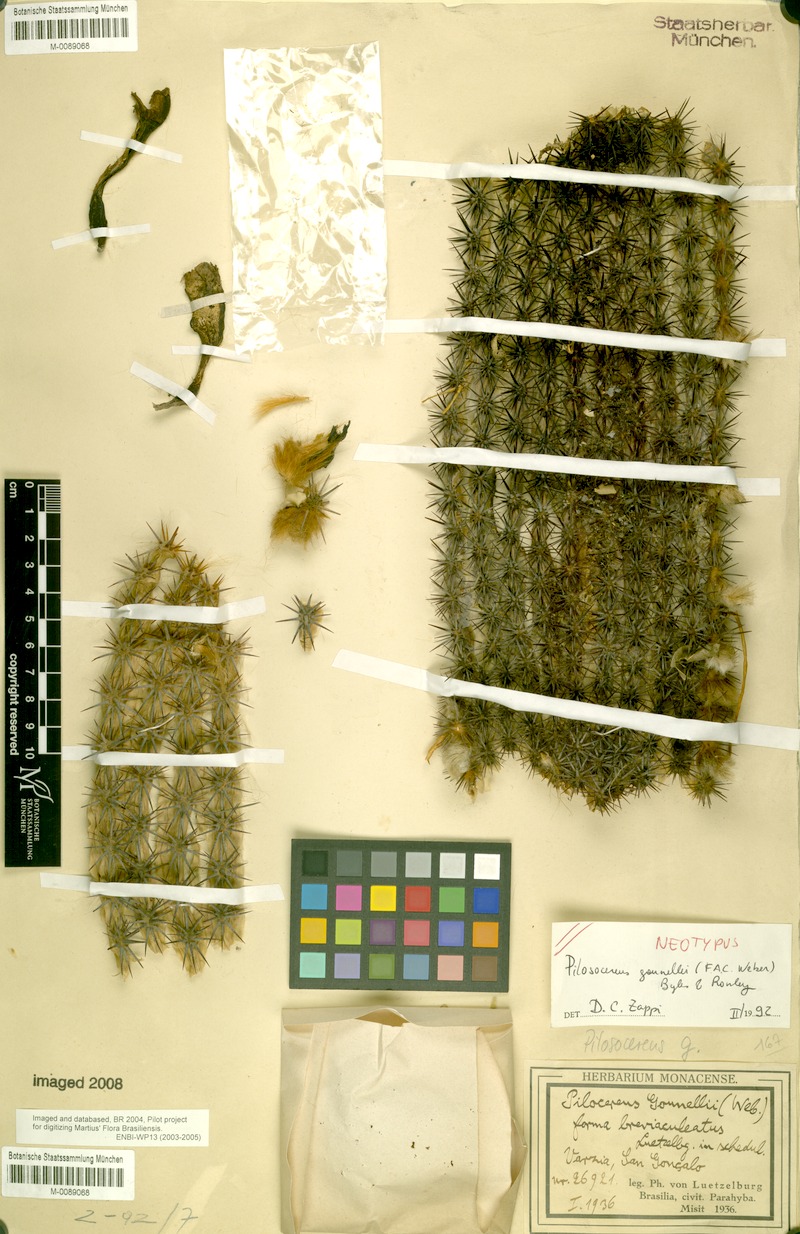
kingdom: Plantae
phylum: Tracheophyta
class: Magnoliopsida
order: Caryophyllales
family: Cactaceae
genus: Xiquexique
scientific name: Xiquexique gounellei
